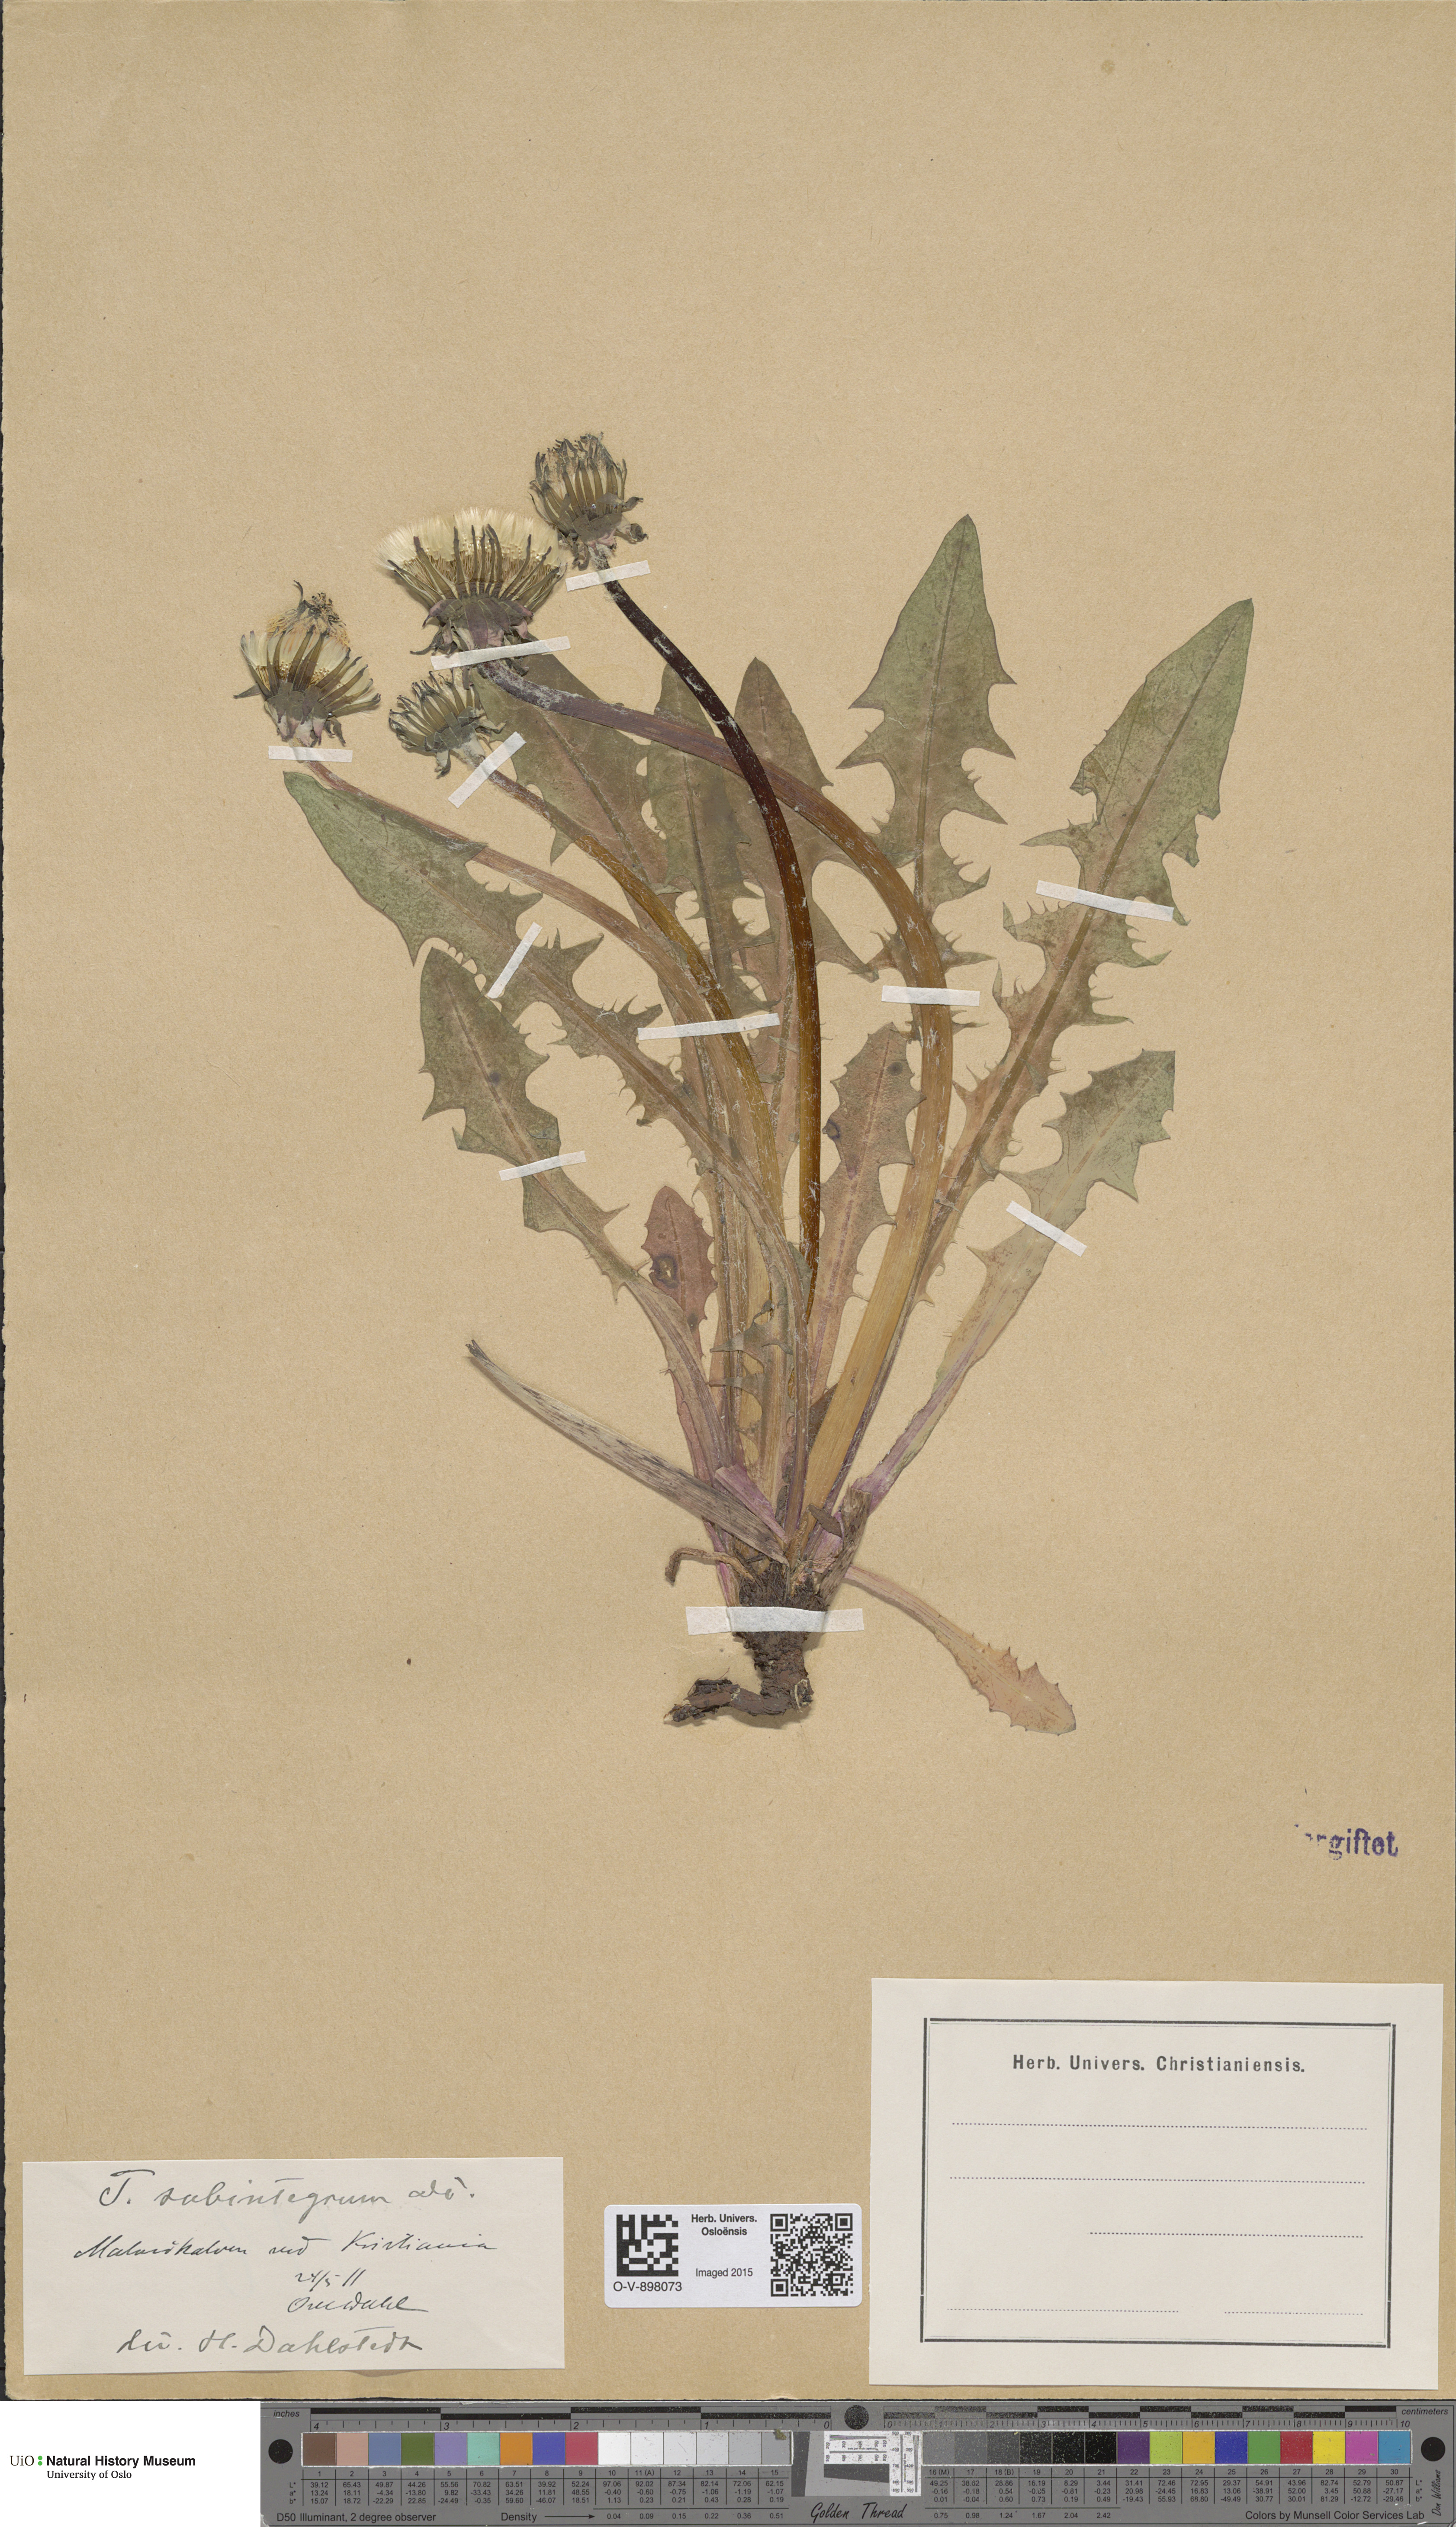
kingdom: Plantae
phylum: Tracheophyta
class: Magnoliopsida
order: Asterales
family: Asteraceae
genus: Taraxacum
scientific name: Taraxacum subintegrum
